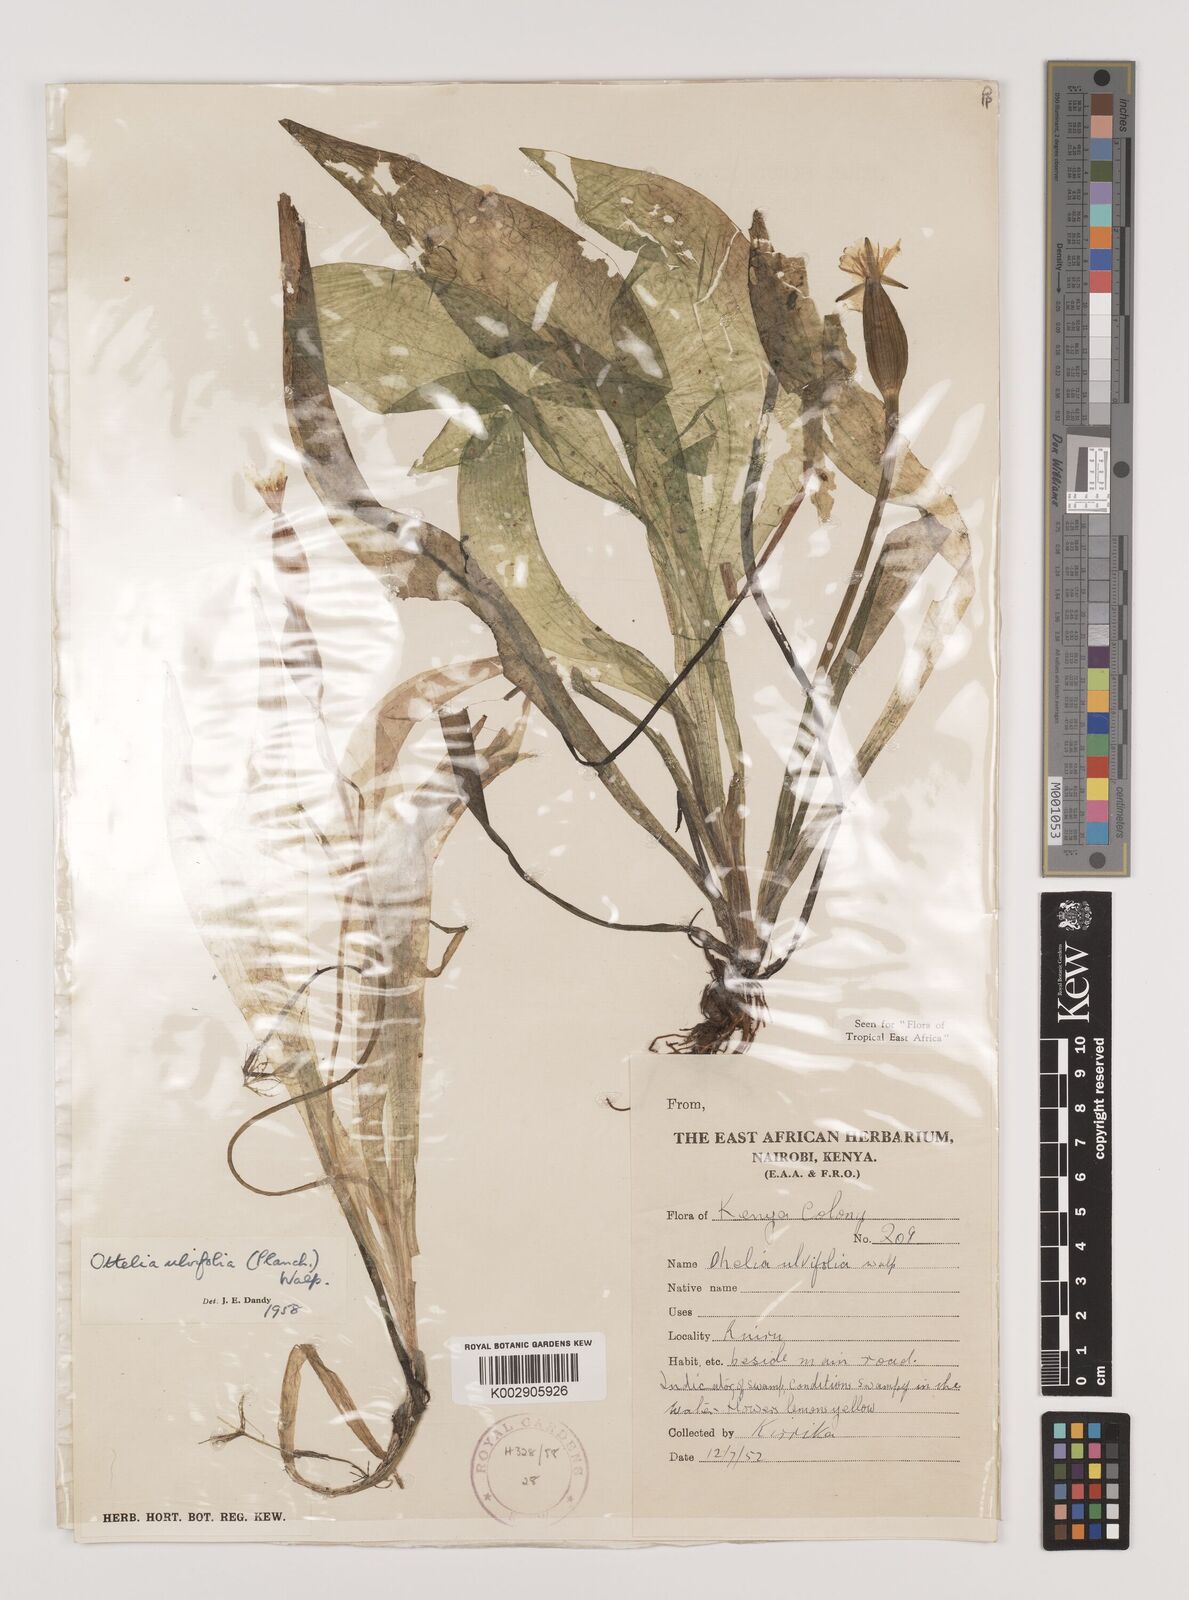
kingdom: Plantae
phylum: Tracheophyta
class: Liliopsida
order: Alismatales
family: Hydrocharitaceae
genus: Ottelia
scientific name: Ottelia ulvifolia
